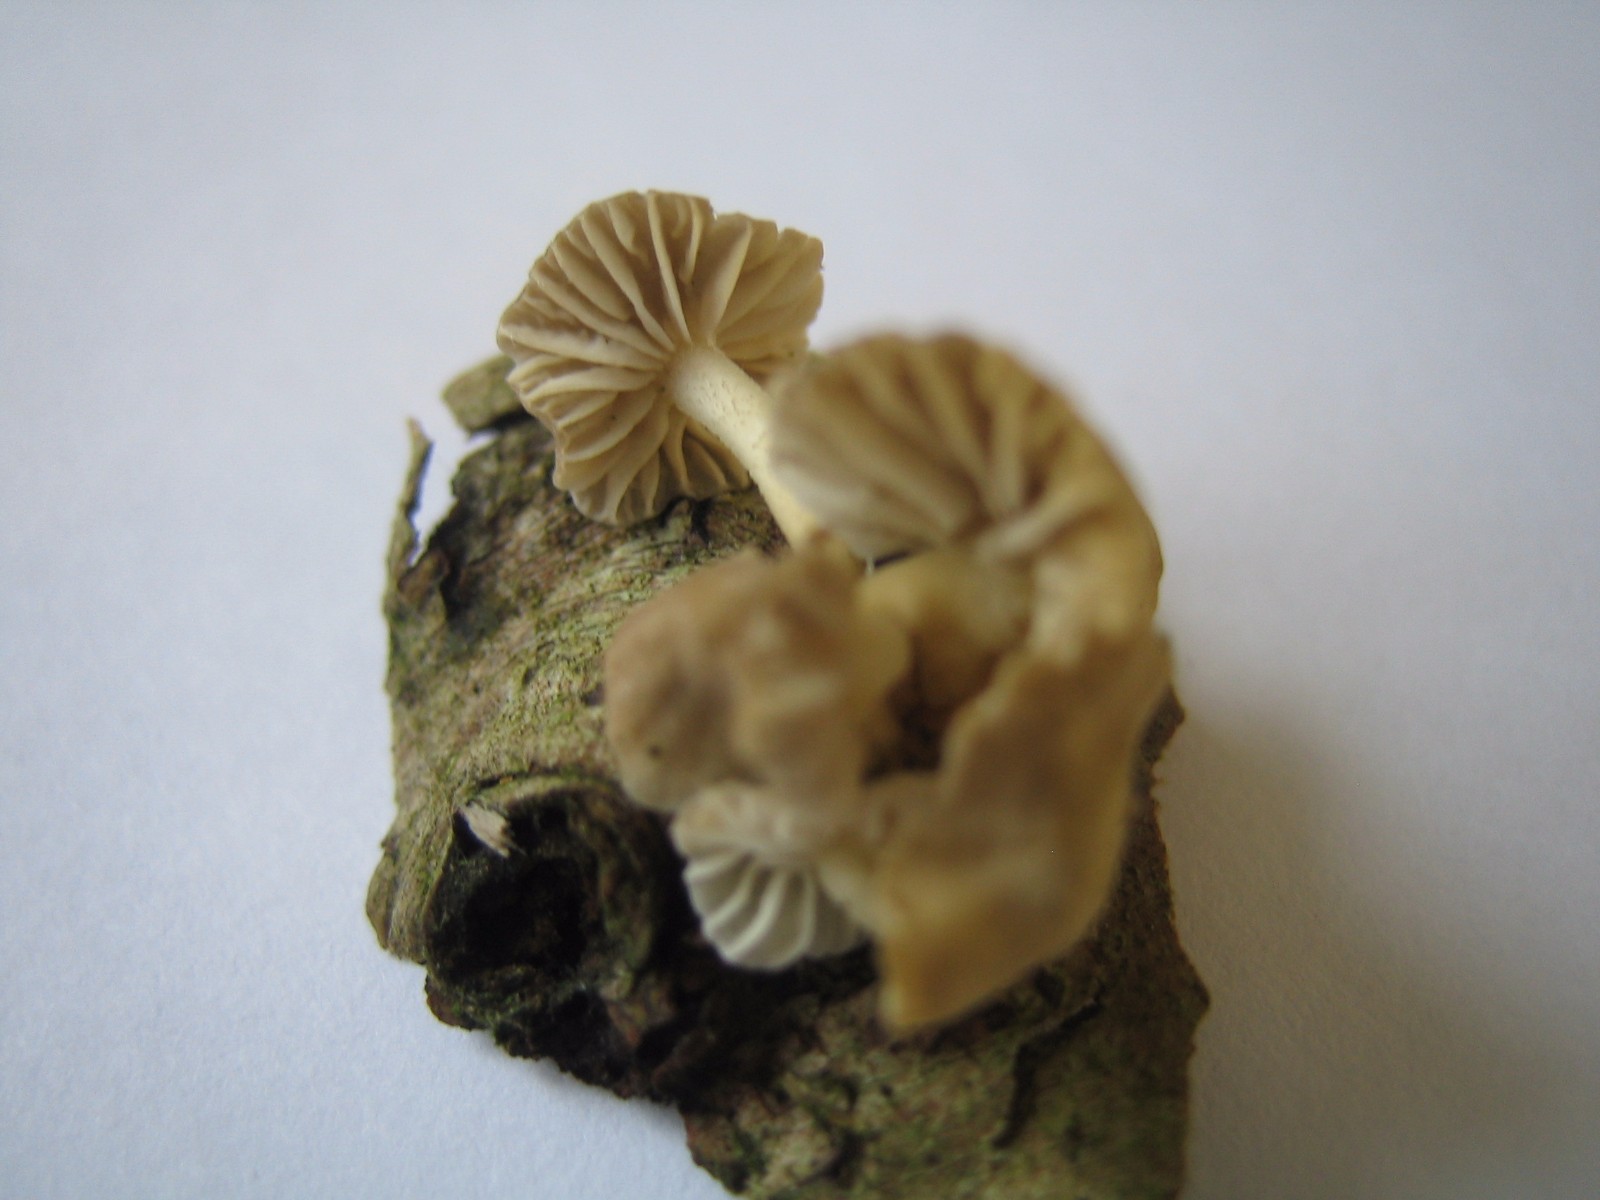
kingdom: Fungi
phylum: Basidiomycota
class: Agaricomycetes
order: Agaricales
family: Mycenaceae
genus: Mycena
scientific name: Mycena
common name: huesvamp
